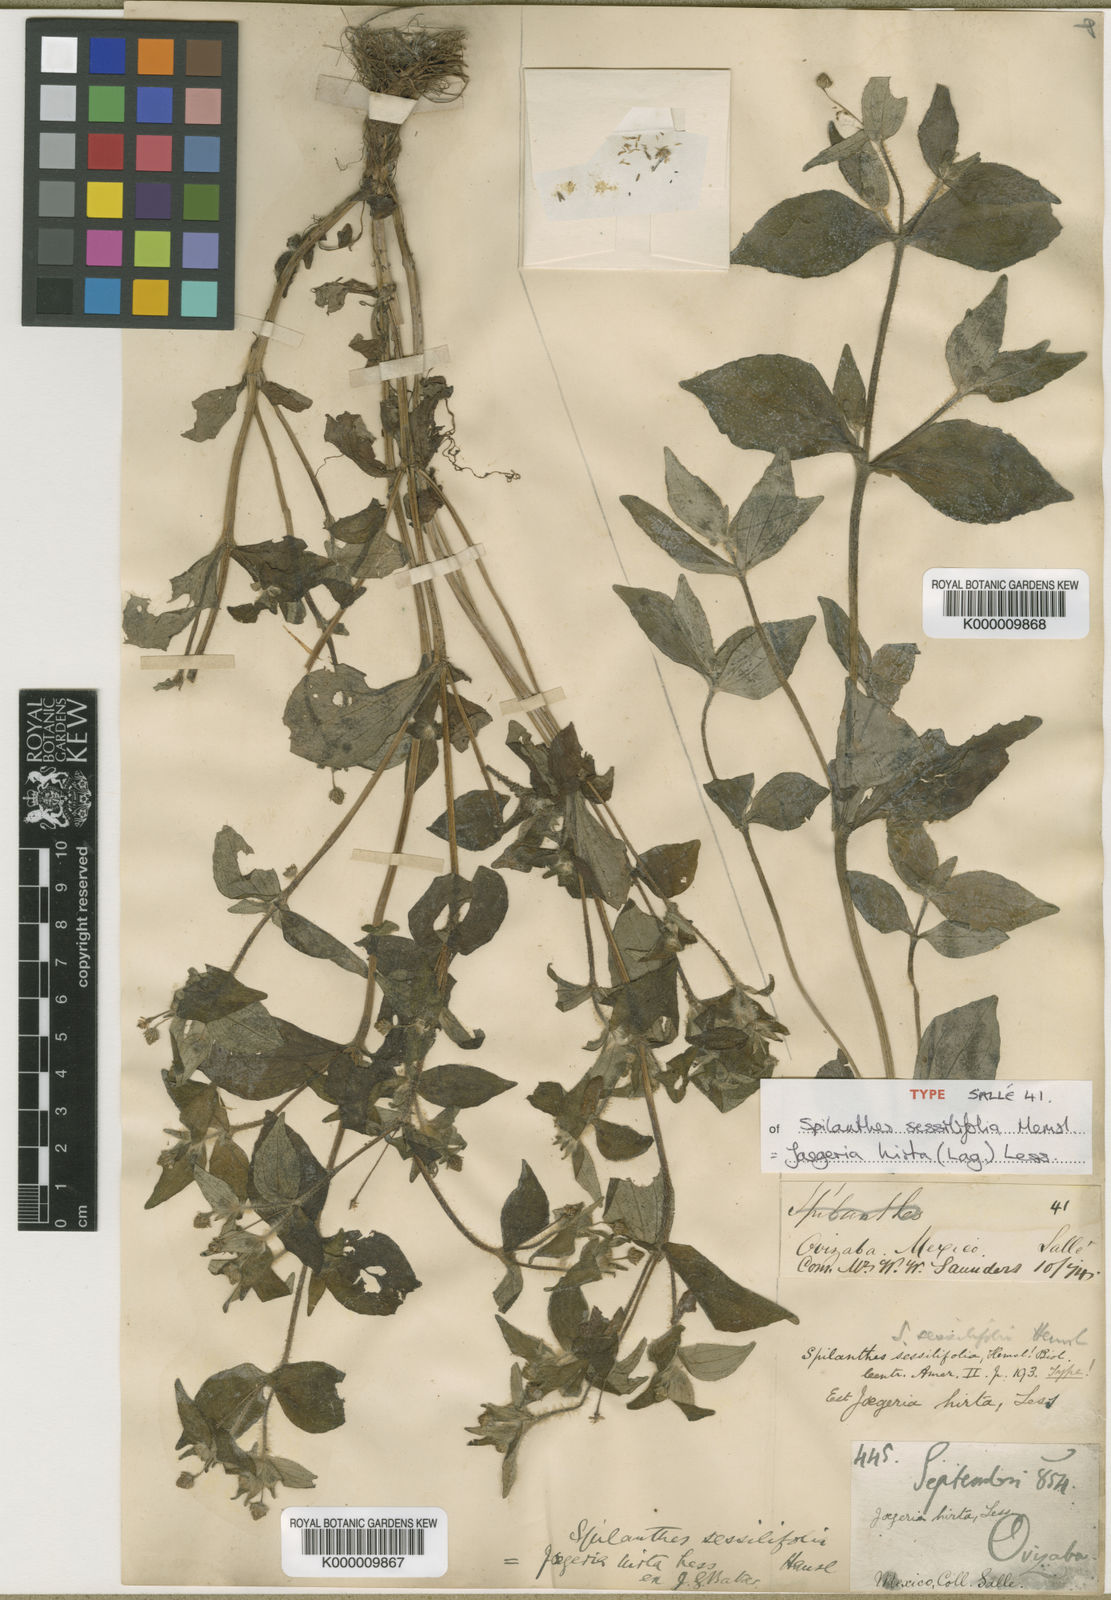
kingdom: Plantae
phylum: Tracheophyta
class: Magnoliopsida
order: Asterales
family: Asteraceae
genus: Jaegeria
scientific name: Jaegeria hirta
